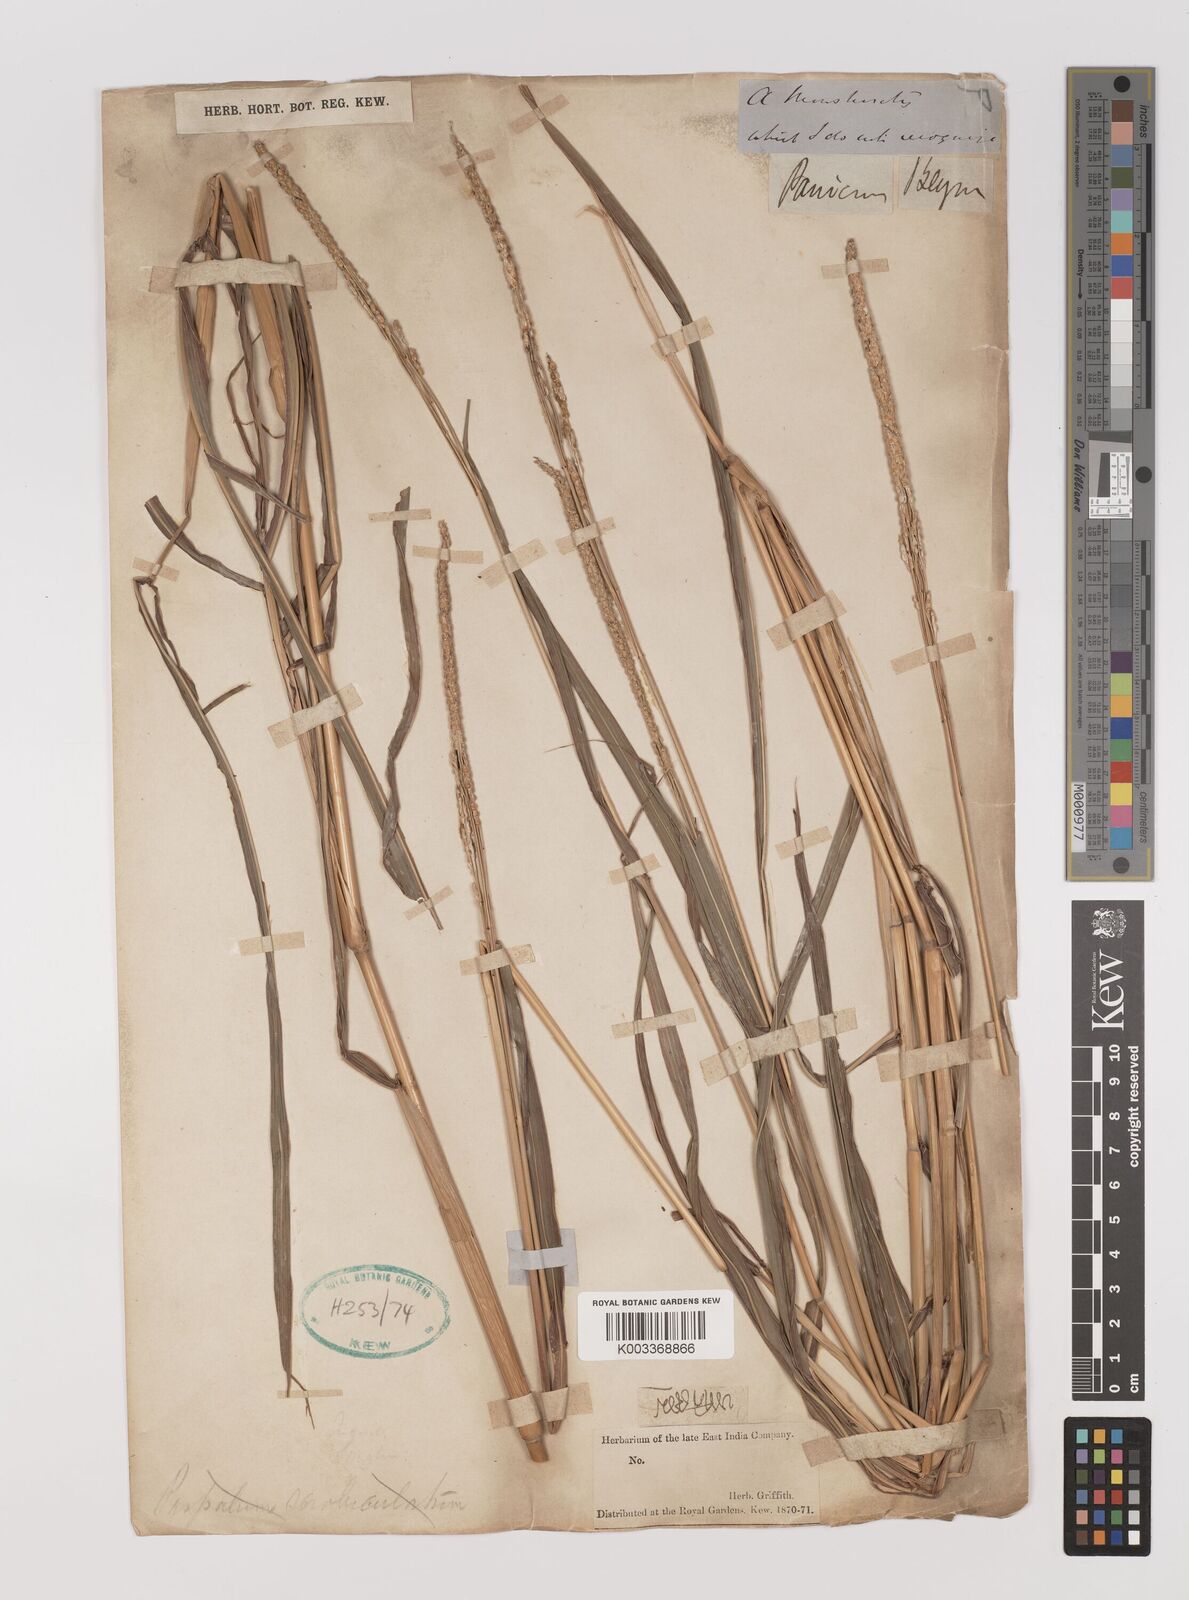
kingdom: Plantae
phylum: Tracheophyta
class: Liliopsida
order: Poales
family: Poaceae
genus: Panicum
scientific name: Panicum
